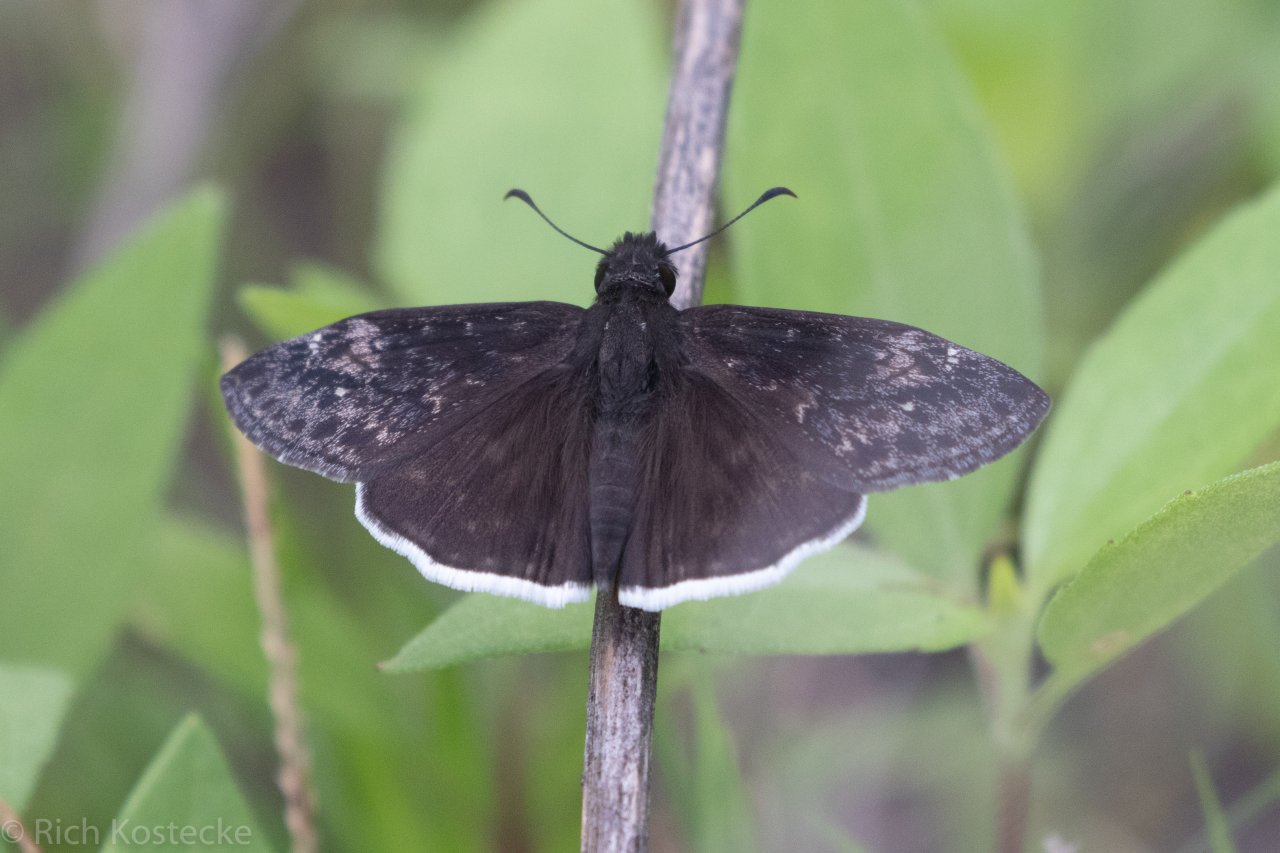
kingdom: Animalia
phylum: Arthropoda
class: Insecta
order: Lepidoptera
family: Hesperiidae
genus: Erynnis
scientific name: Erynnis funeralis
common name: Funereal Duskywing
